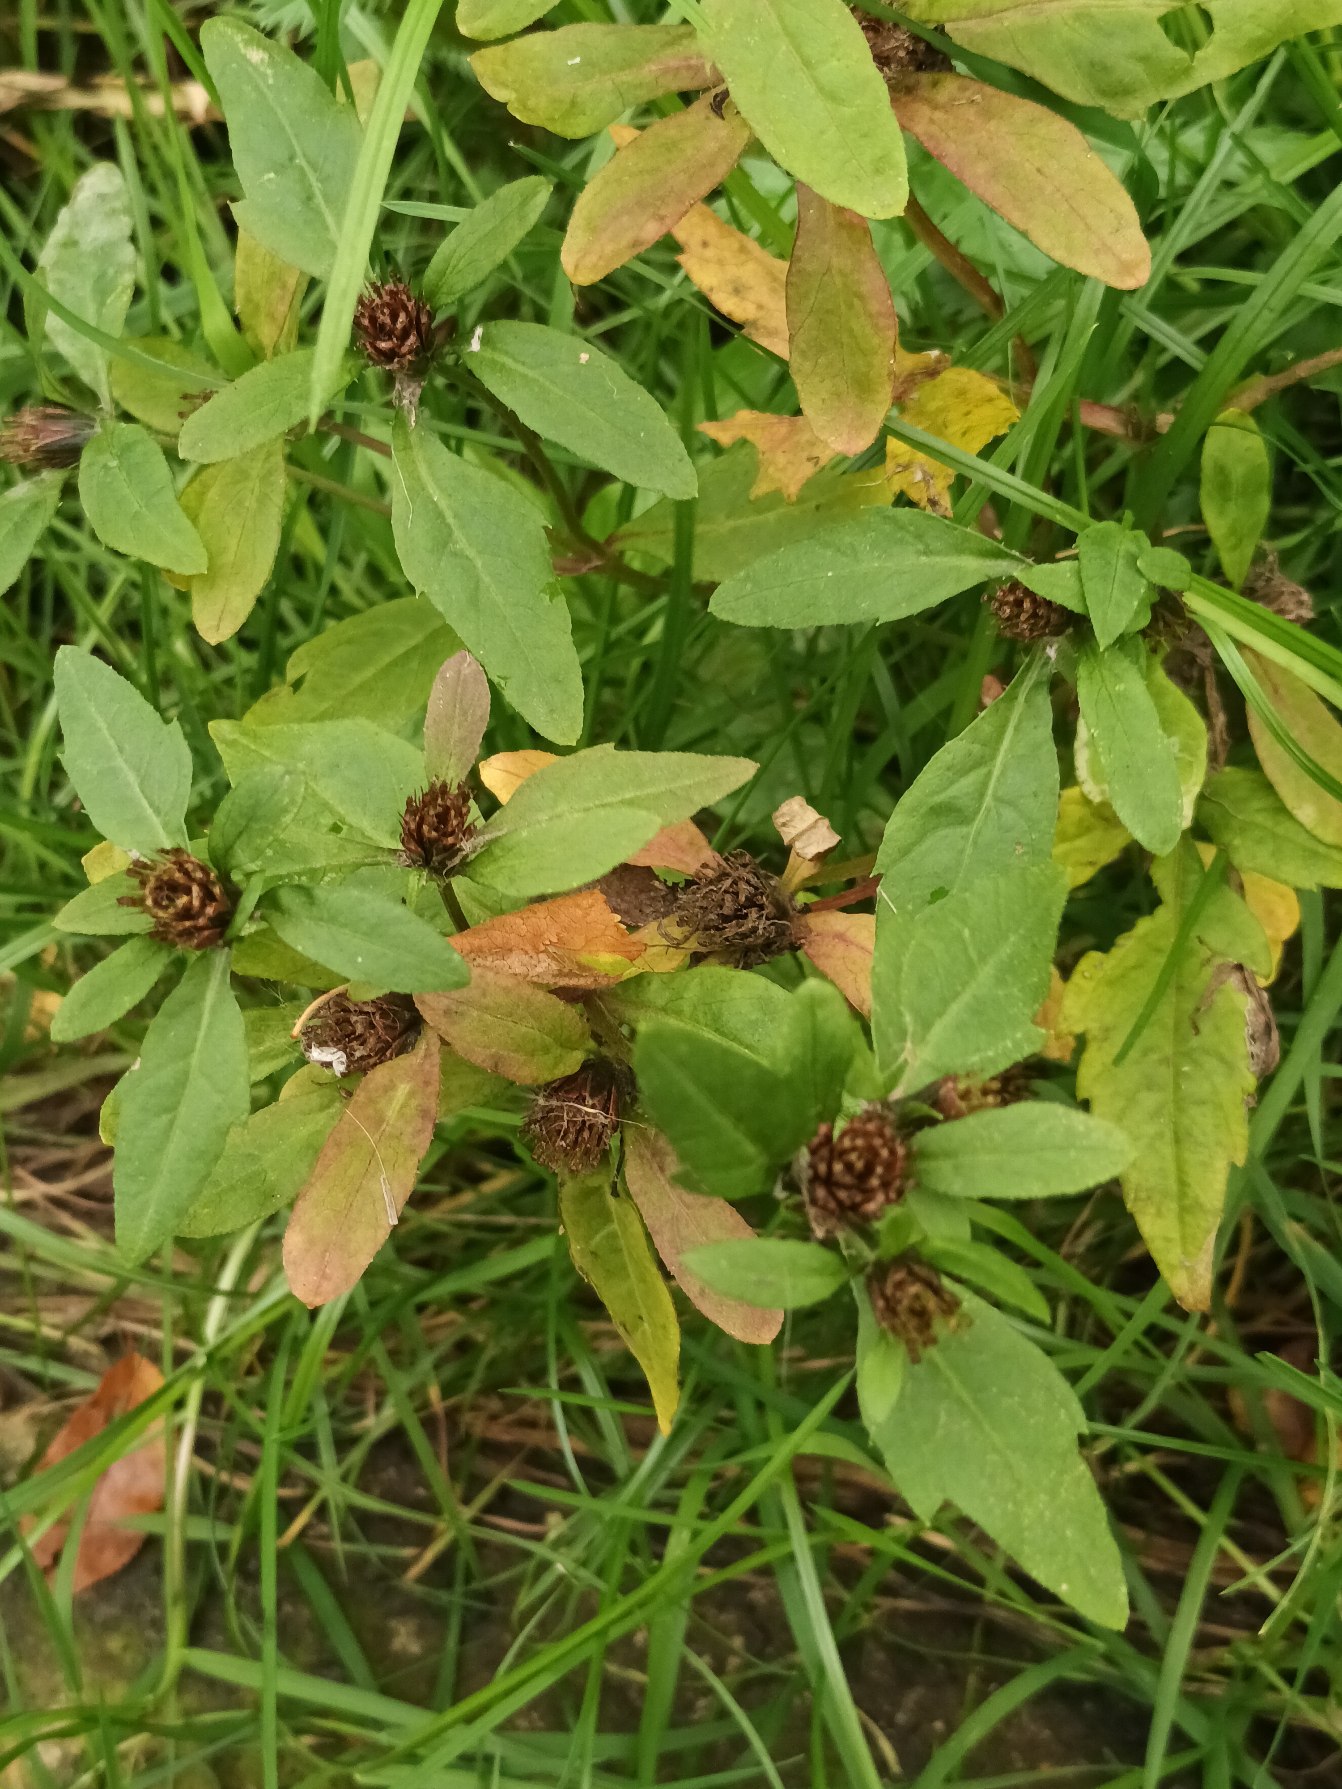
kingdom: Plantae
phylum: Tracheophyta
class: Magnoliopsida
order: Asterales
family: Asteraceae
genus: Bidens
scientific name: Bidens tripartita
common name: Fliget brøndsel
